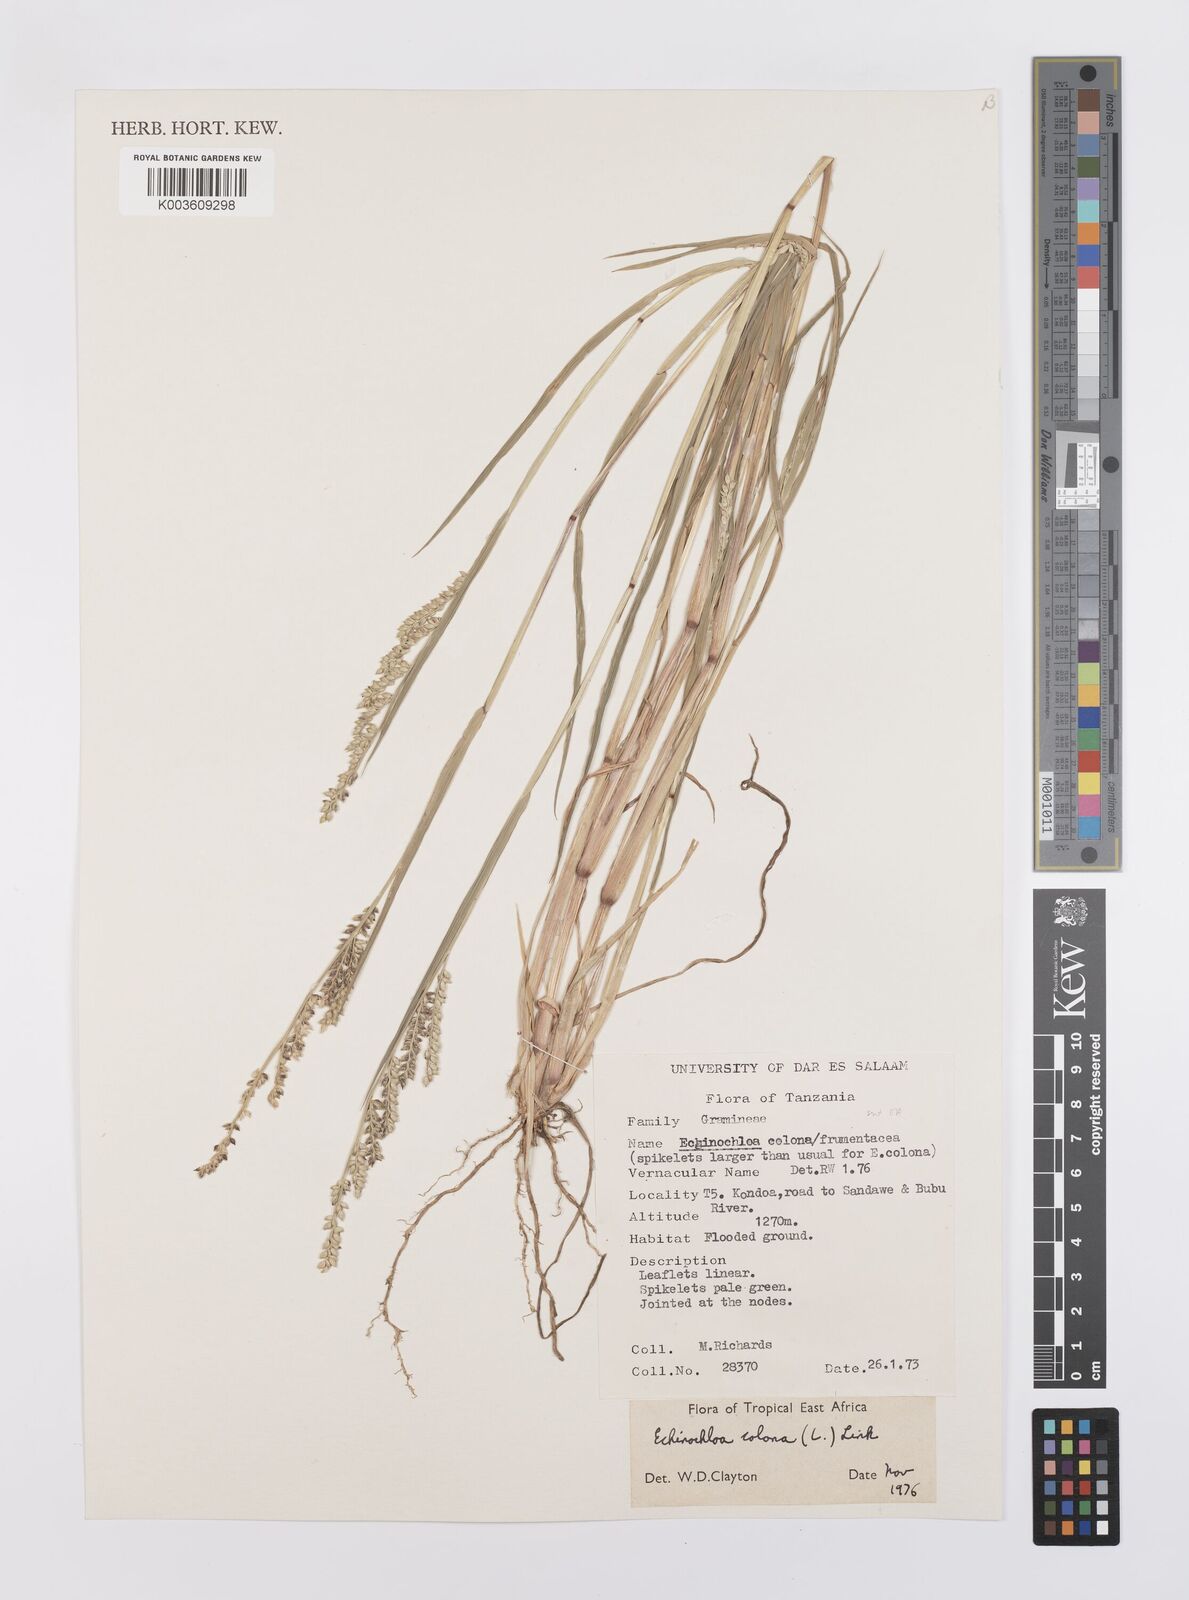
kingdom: Plantae
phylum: Tracheophyta
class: Liliopsida
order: Poales
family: Poaceae
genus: Echinochloa
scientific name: Echinochloa colonum
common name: Jungle rice
